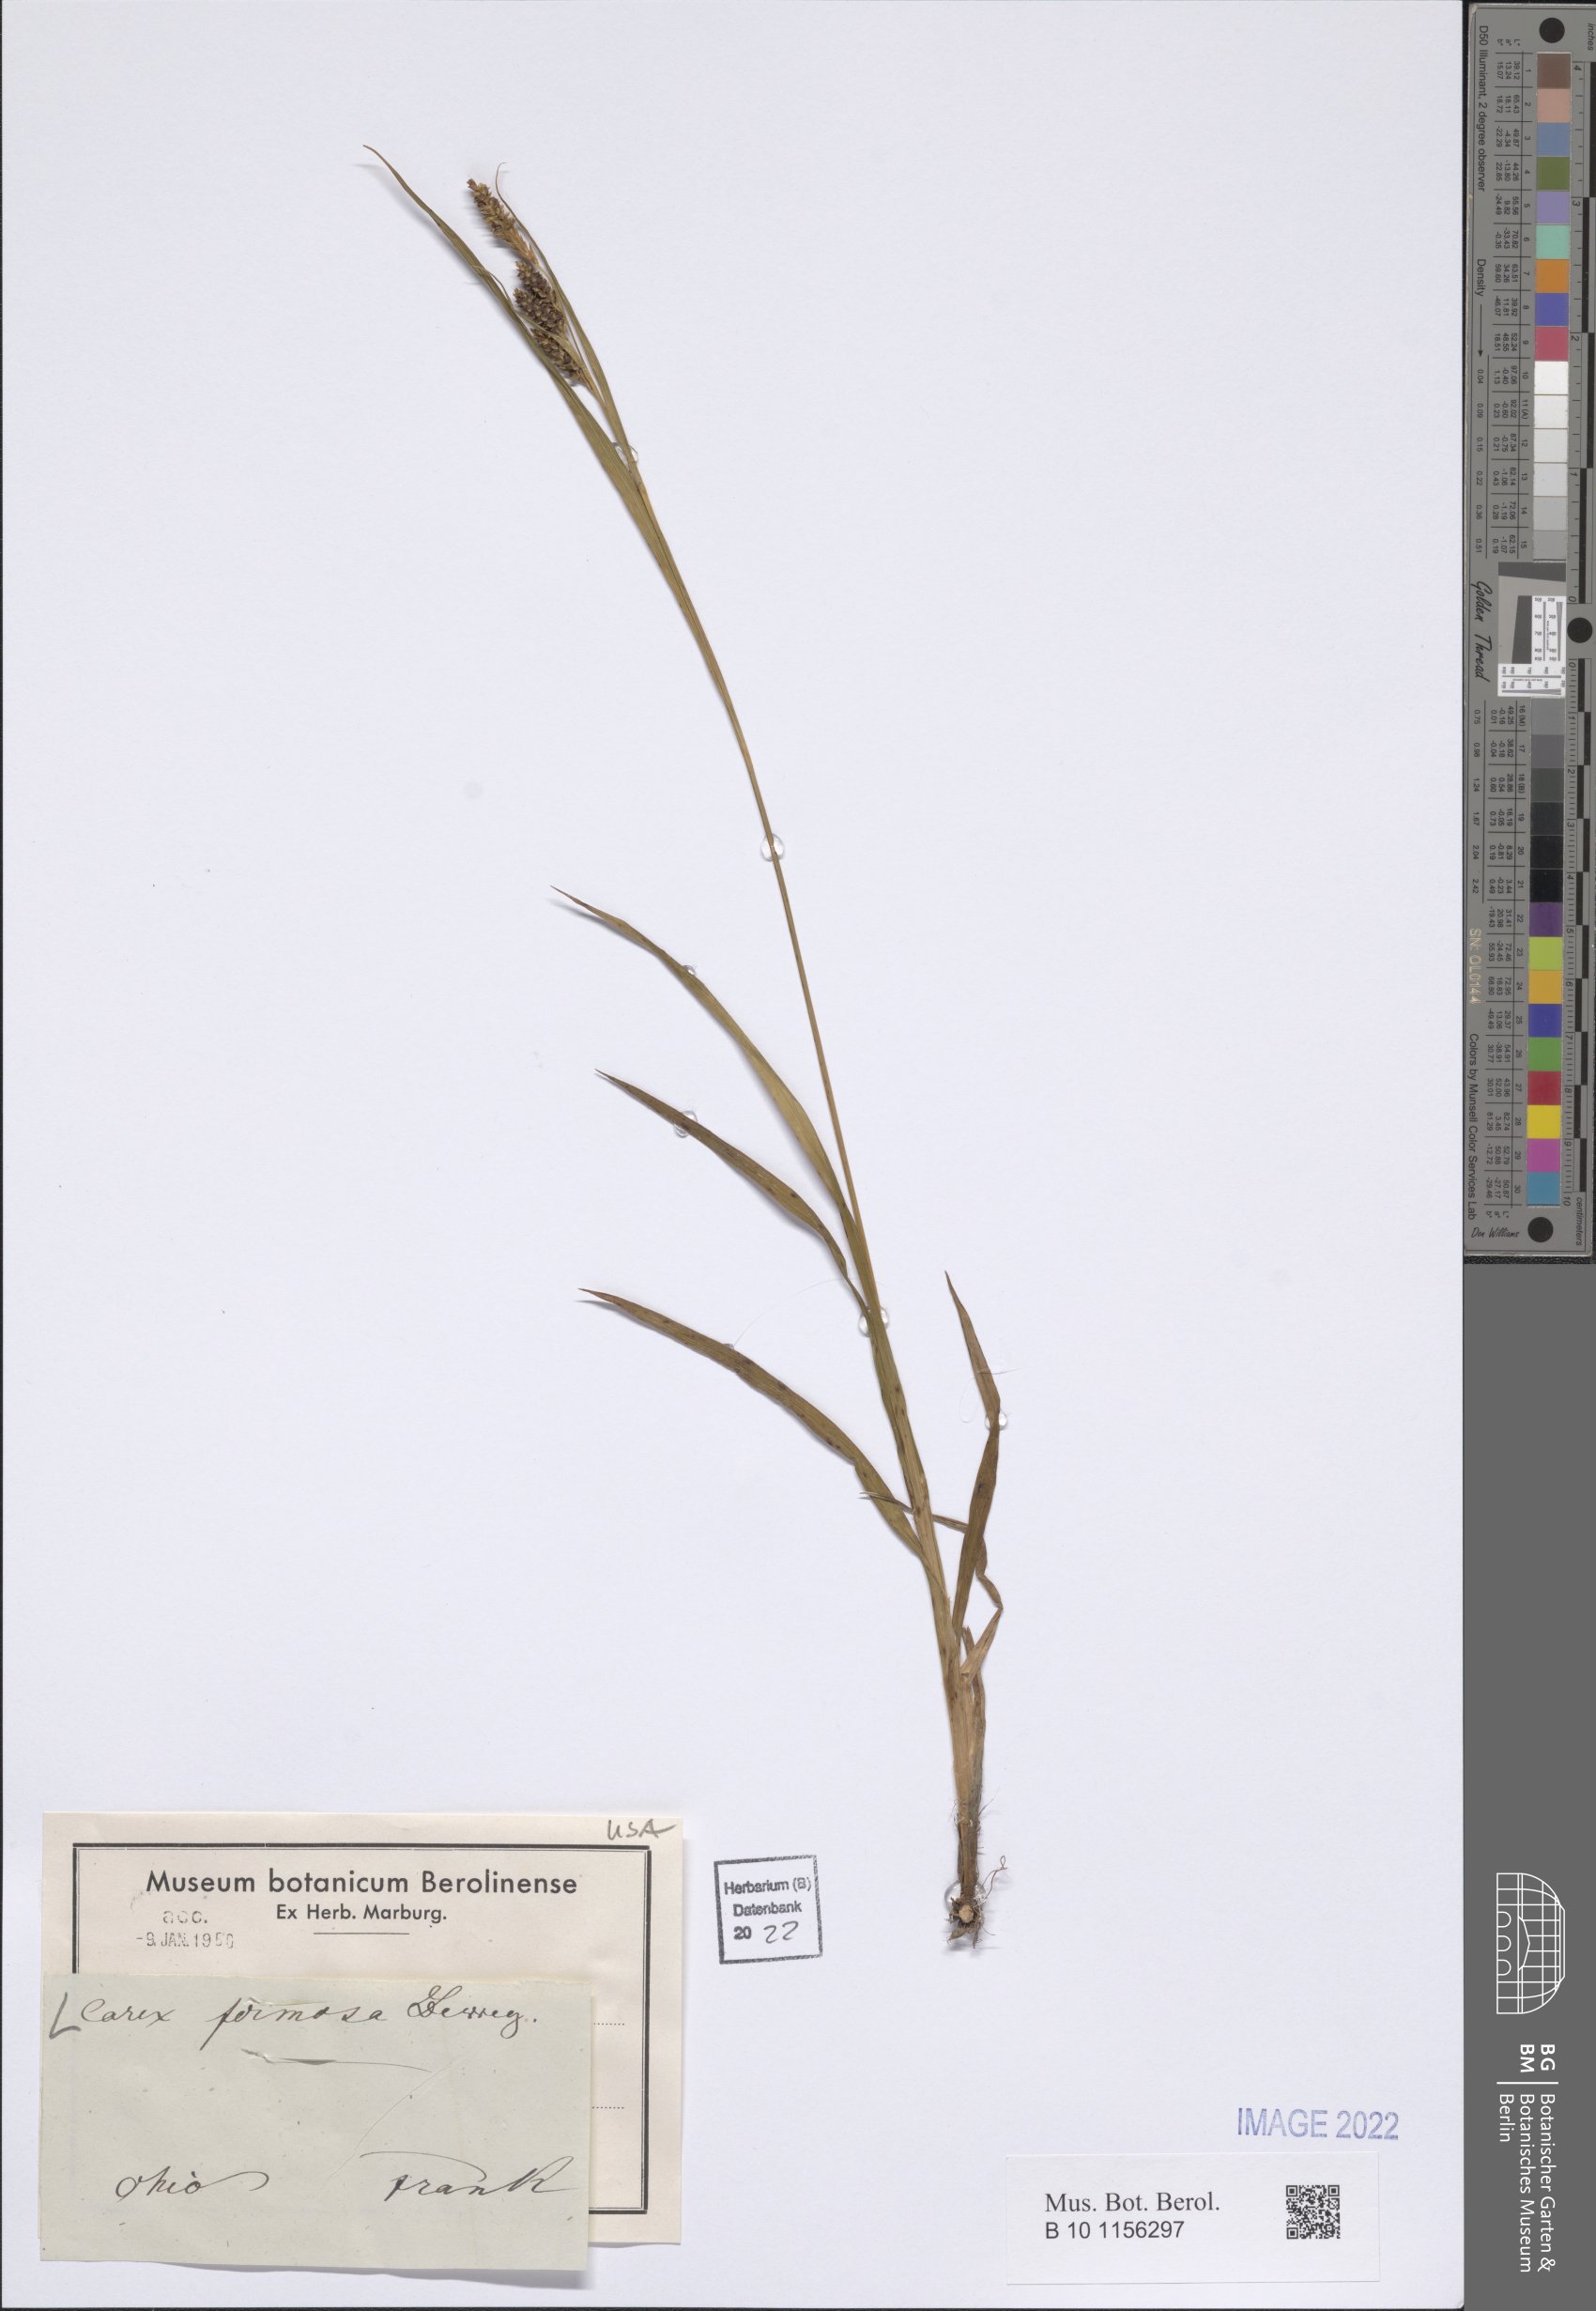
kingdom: Plantae
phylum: Tracheophyta
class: Liliopsida
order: Poales
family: Cyperaceae
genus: Carex
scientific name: Carex formosa
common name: Awnless graceful sedge
